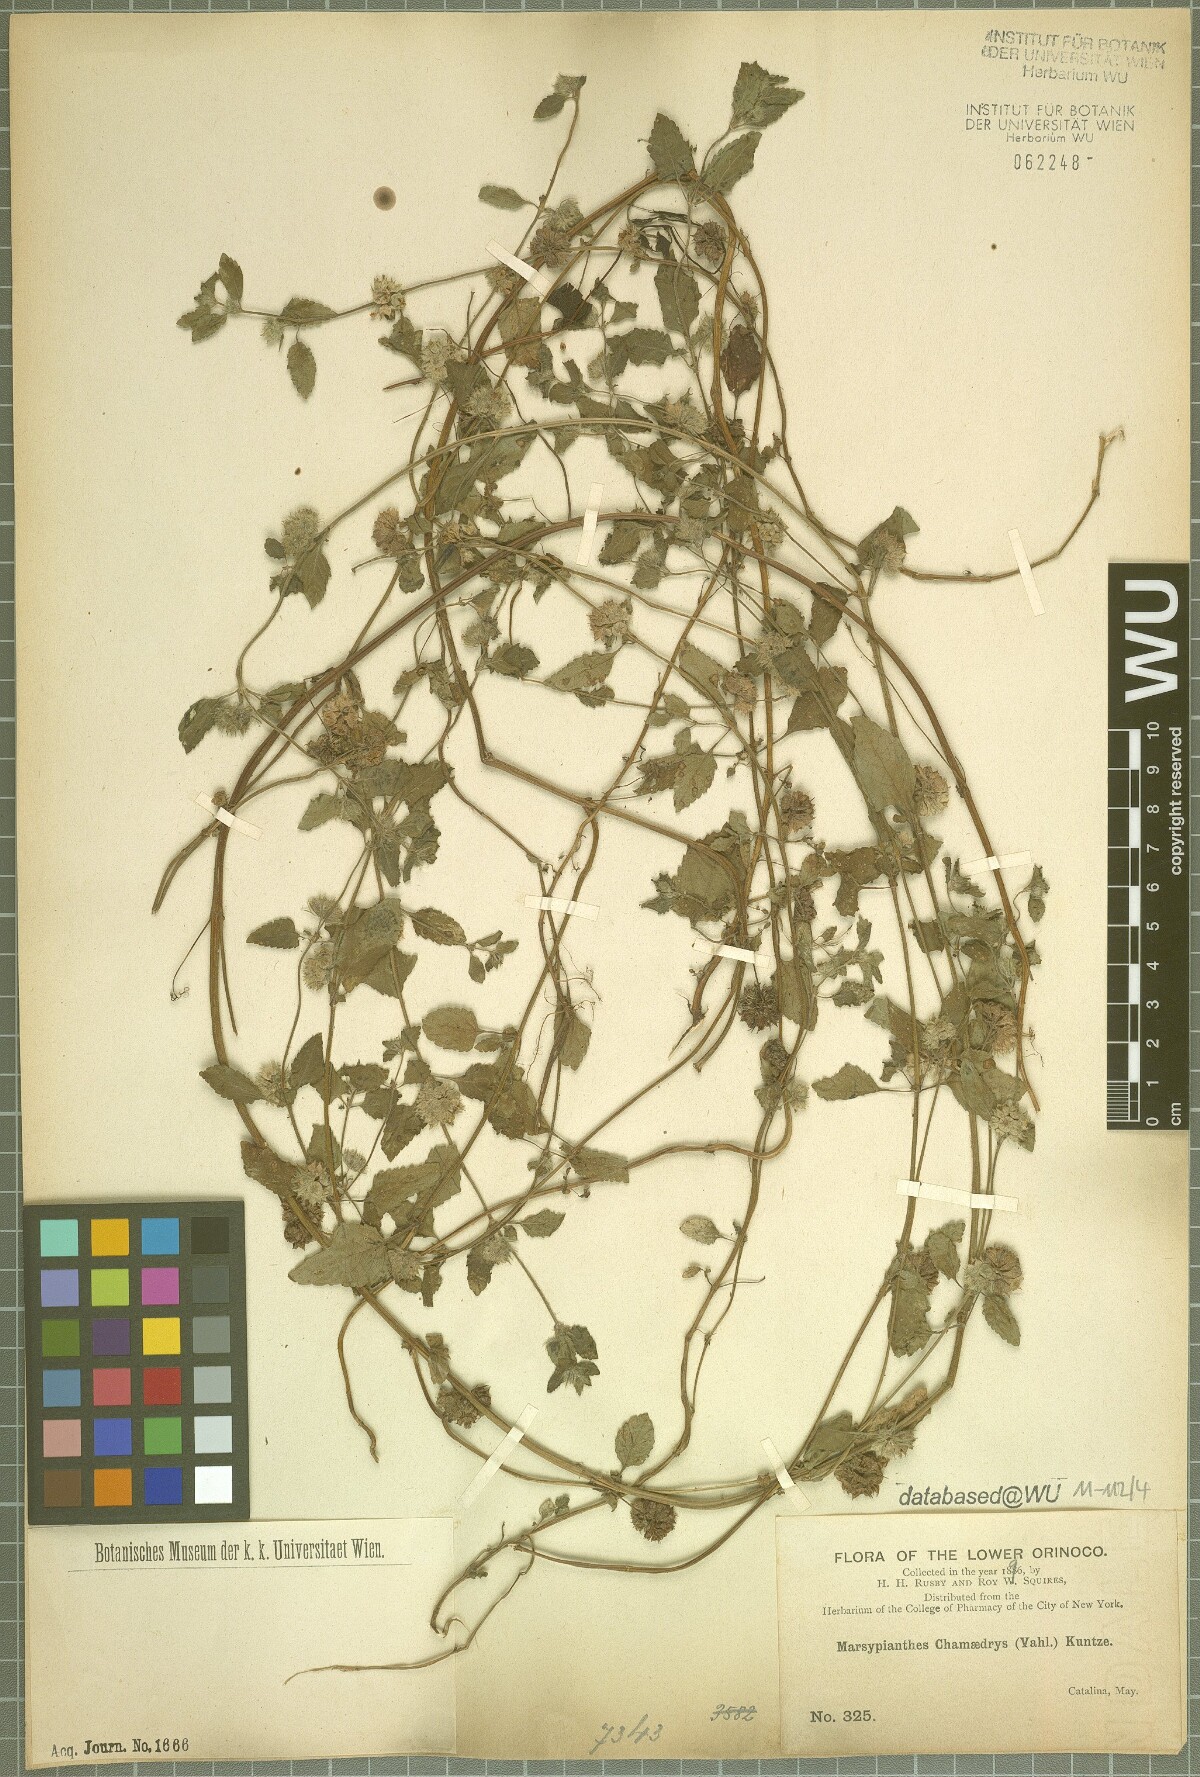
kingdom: Plantae
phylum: Tracheophyta
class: Magnoliopsida
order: Lamiales
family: Lamiaceae
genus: Marsypianthes
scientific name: Marsypianthes chamaedrys
